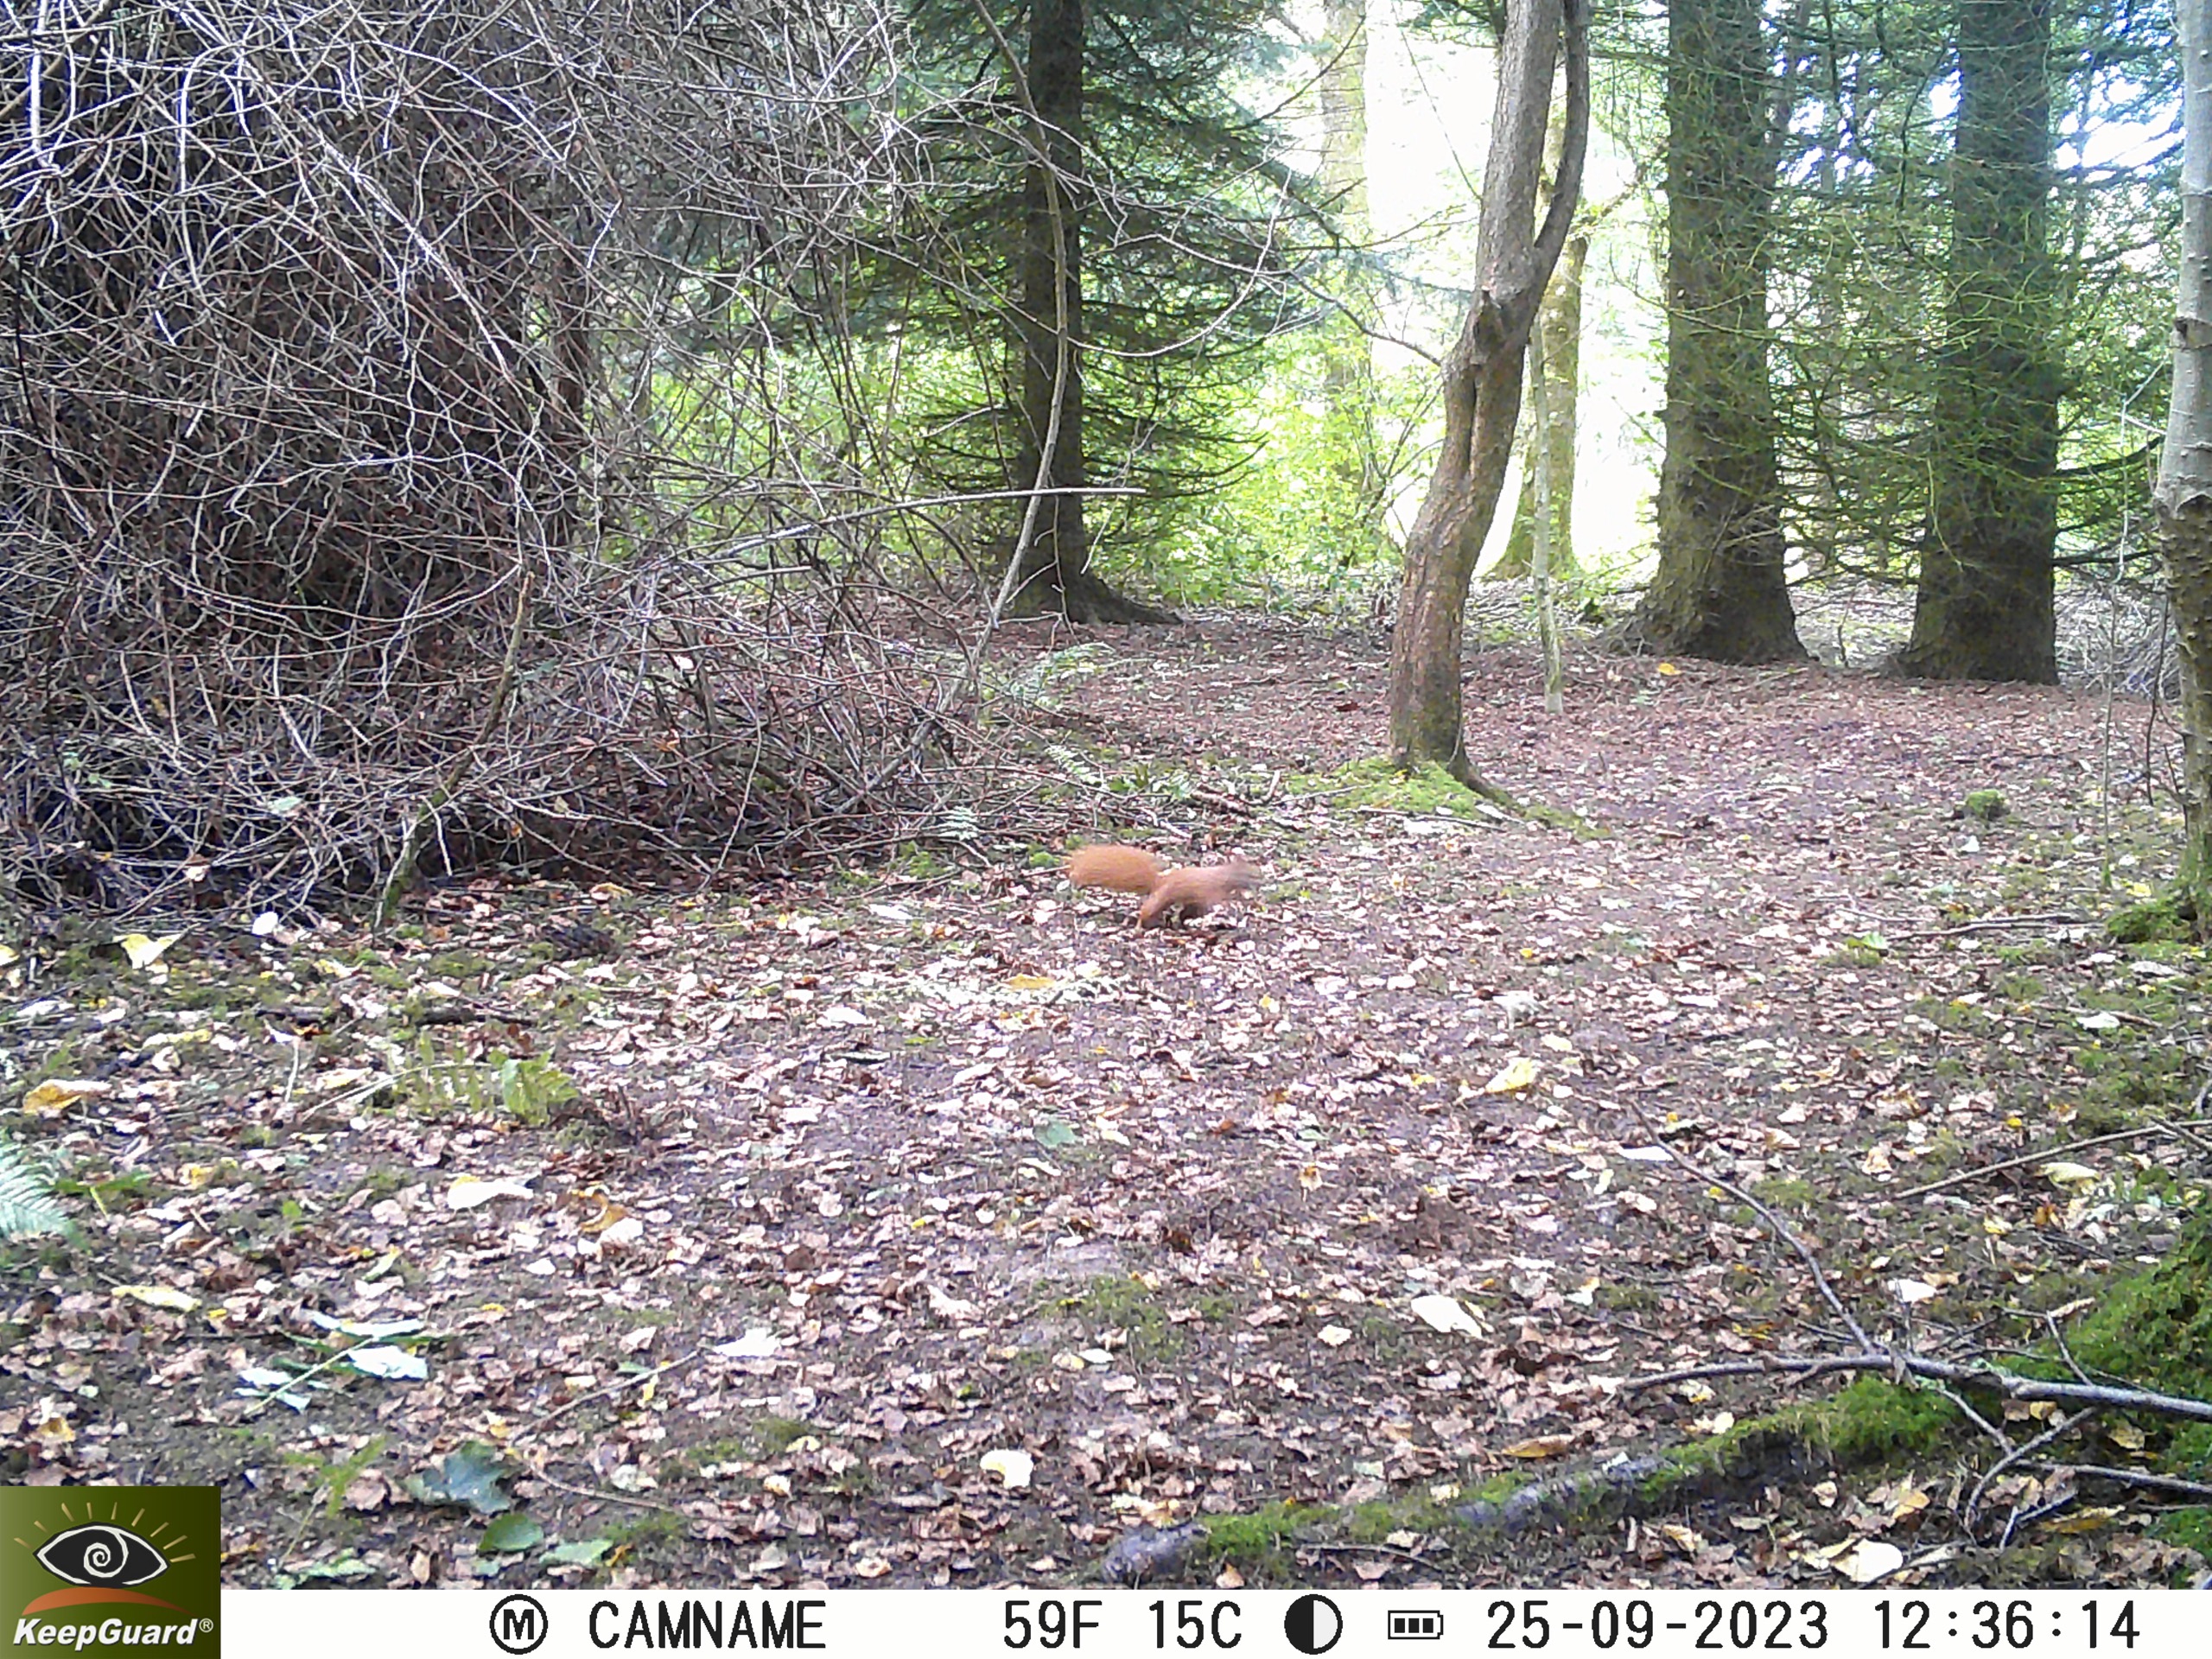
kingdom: Animalia
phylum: Chordata
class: Mammalia
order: Rodentia
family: Sciuridae
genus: Sciurus
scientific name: Sciurus vulgaris
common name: Egern
